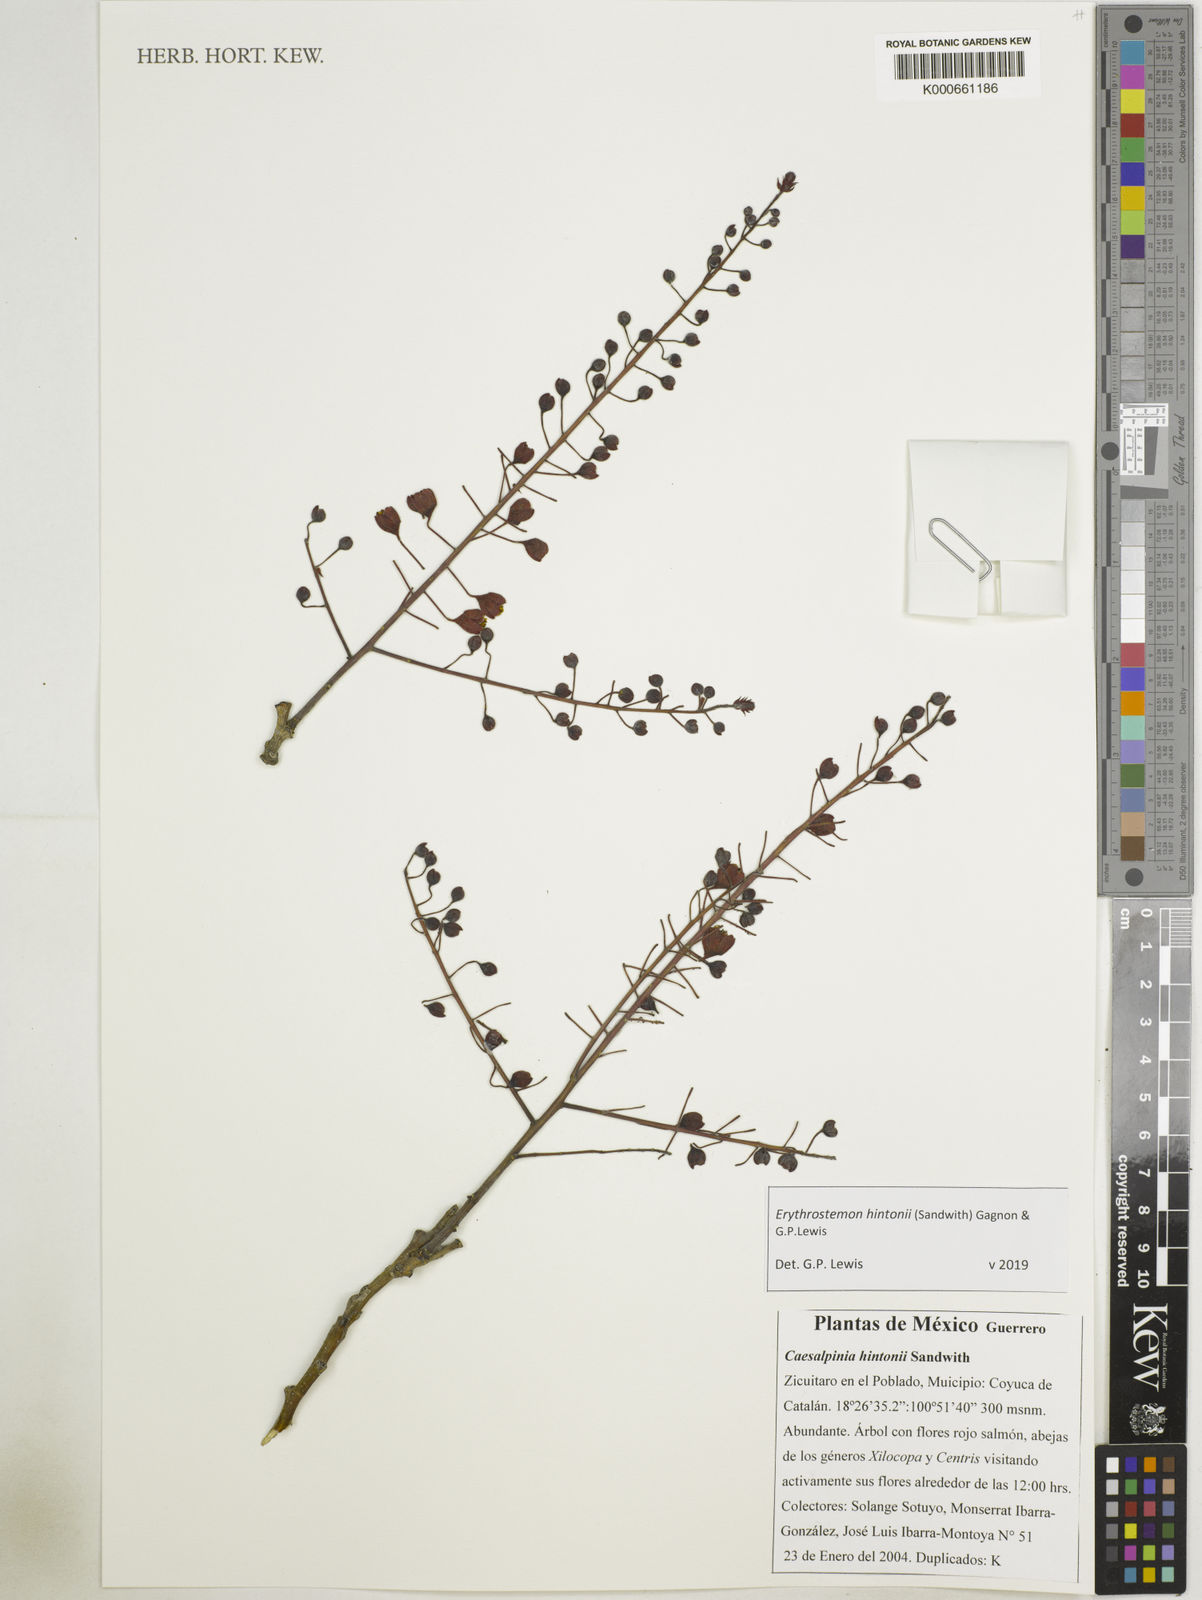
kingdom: Plantae
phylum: Tracheophyta
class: Magnoliopsida
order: Fabales
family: Fabaceae
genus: Erythrostemon
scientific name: Erythrostemon hintonii
